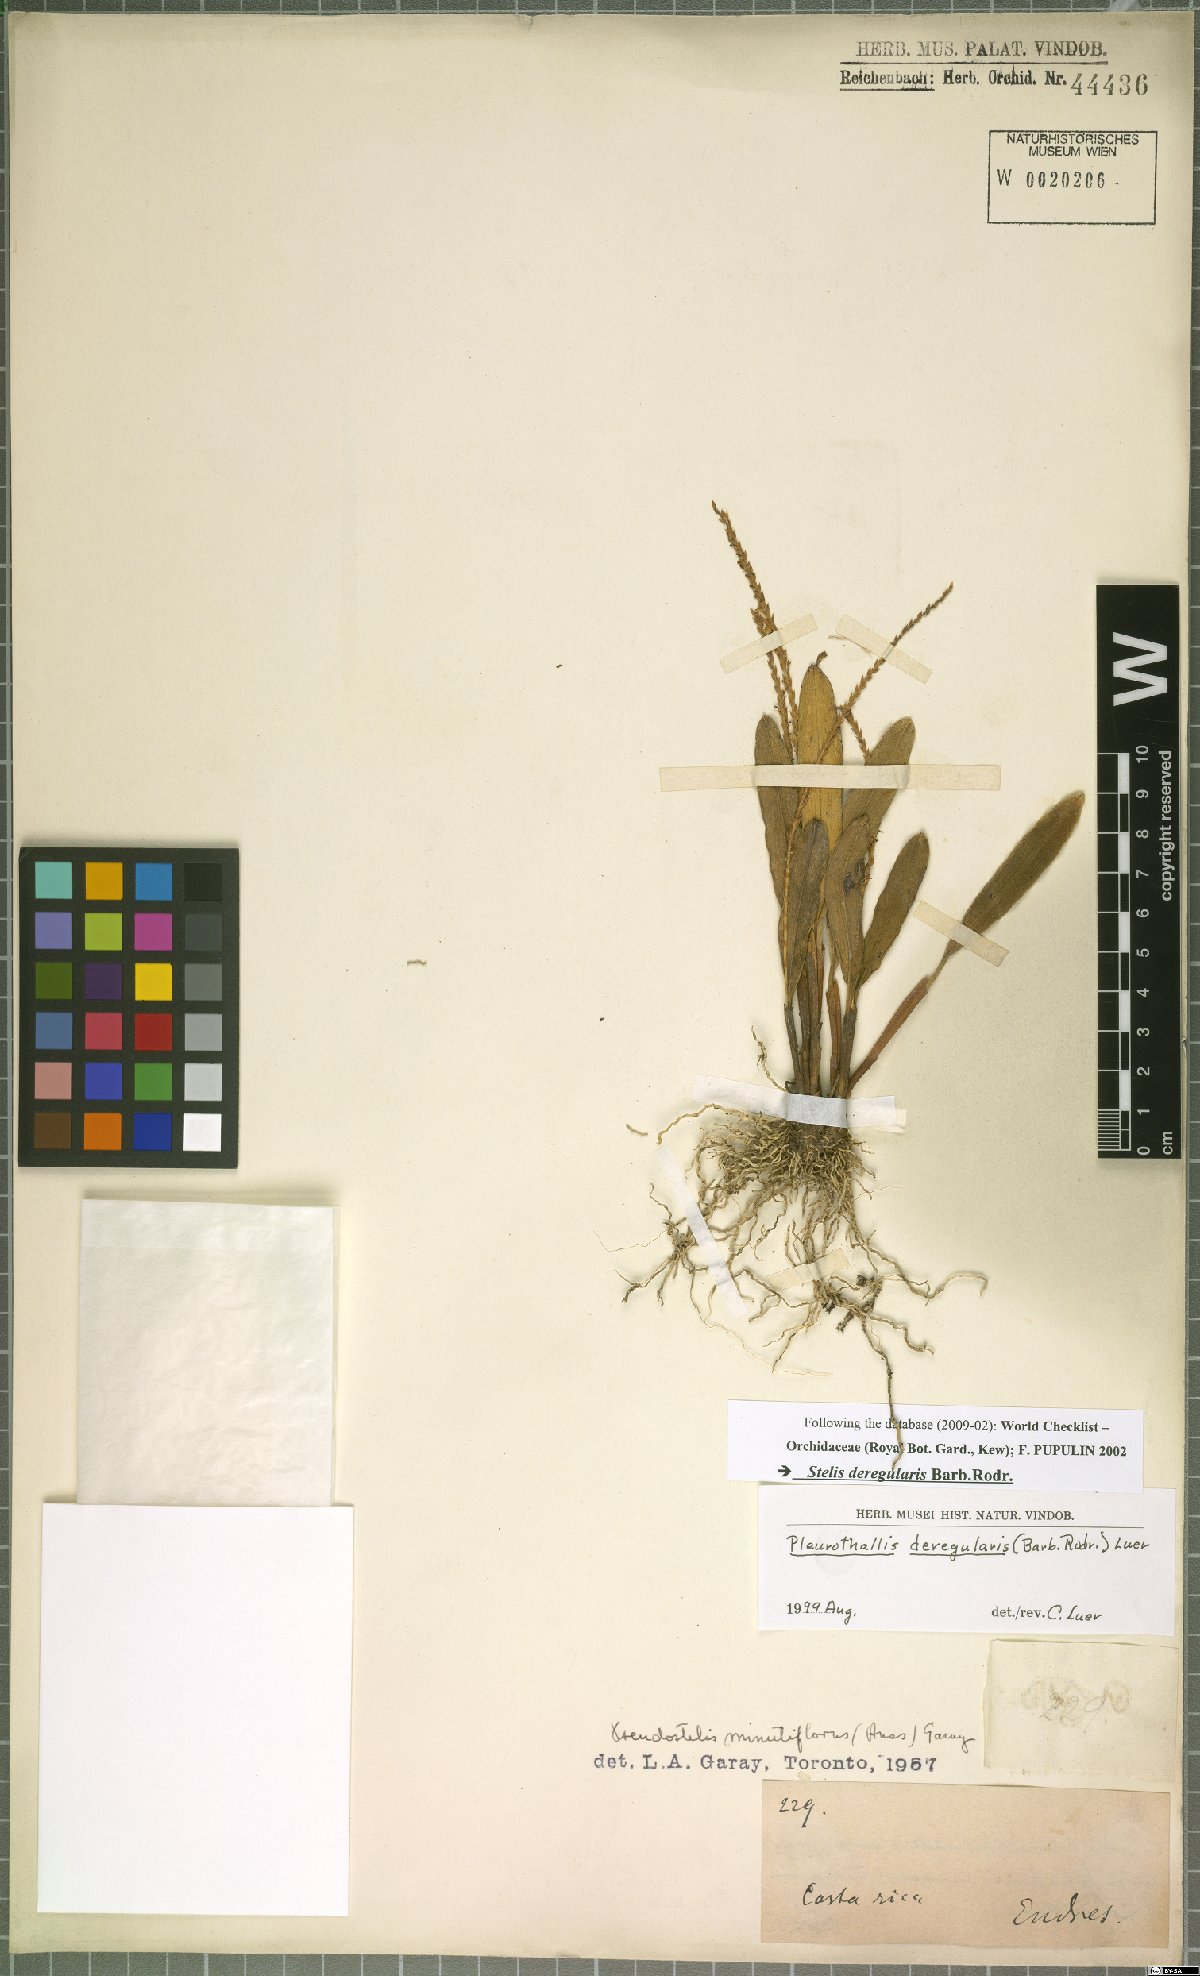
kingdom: Plantae
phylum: Tracheophyta
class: Liliopsida
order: Asparagales
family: Orchidaceae
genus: Stelis
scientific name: Stelis deregularis
